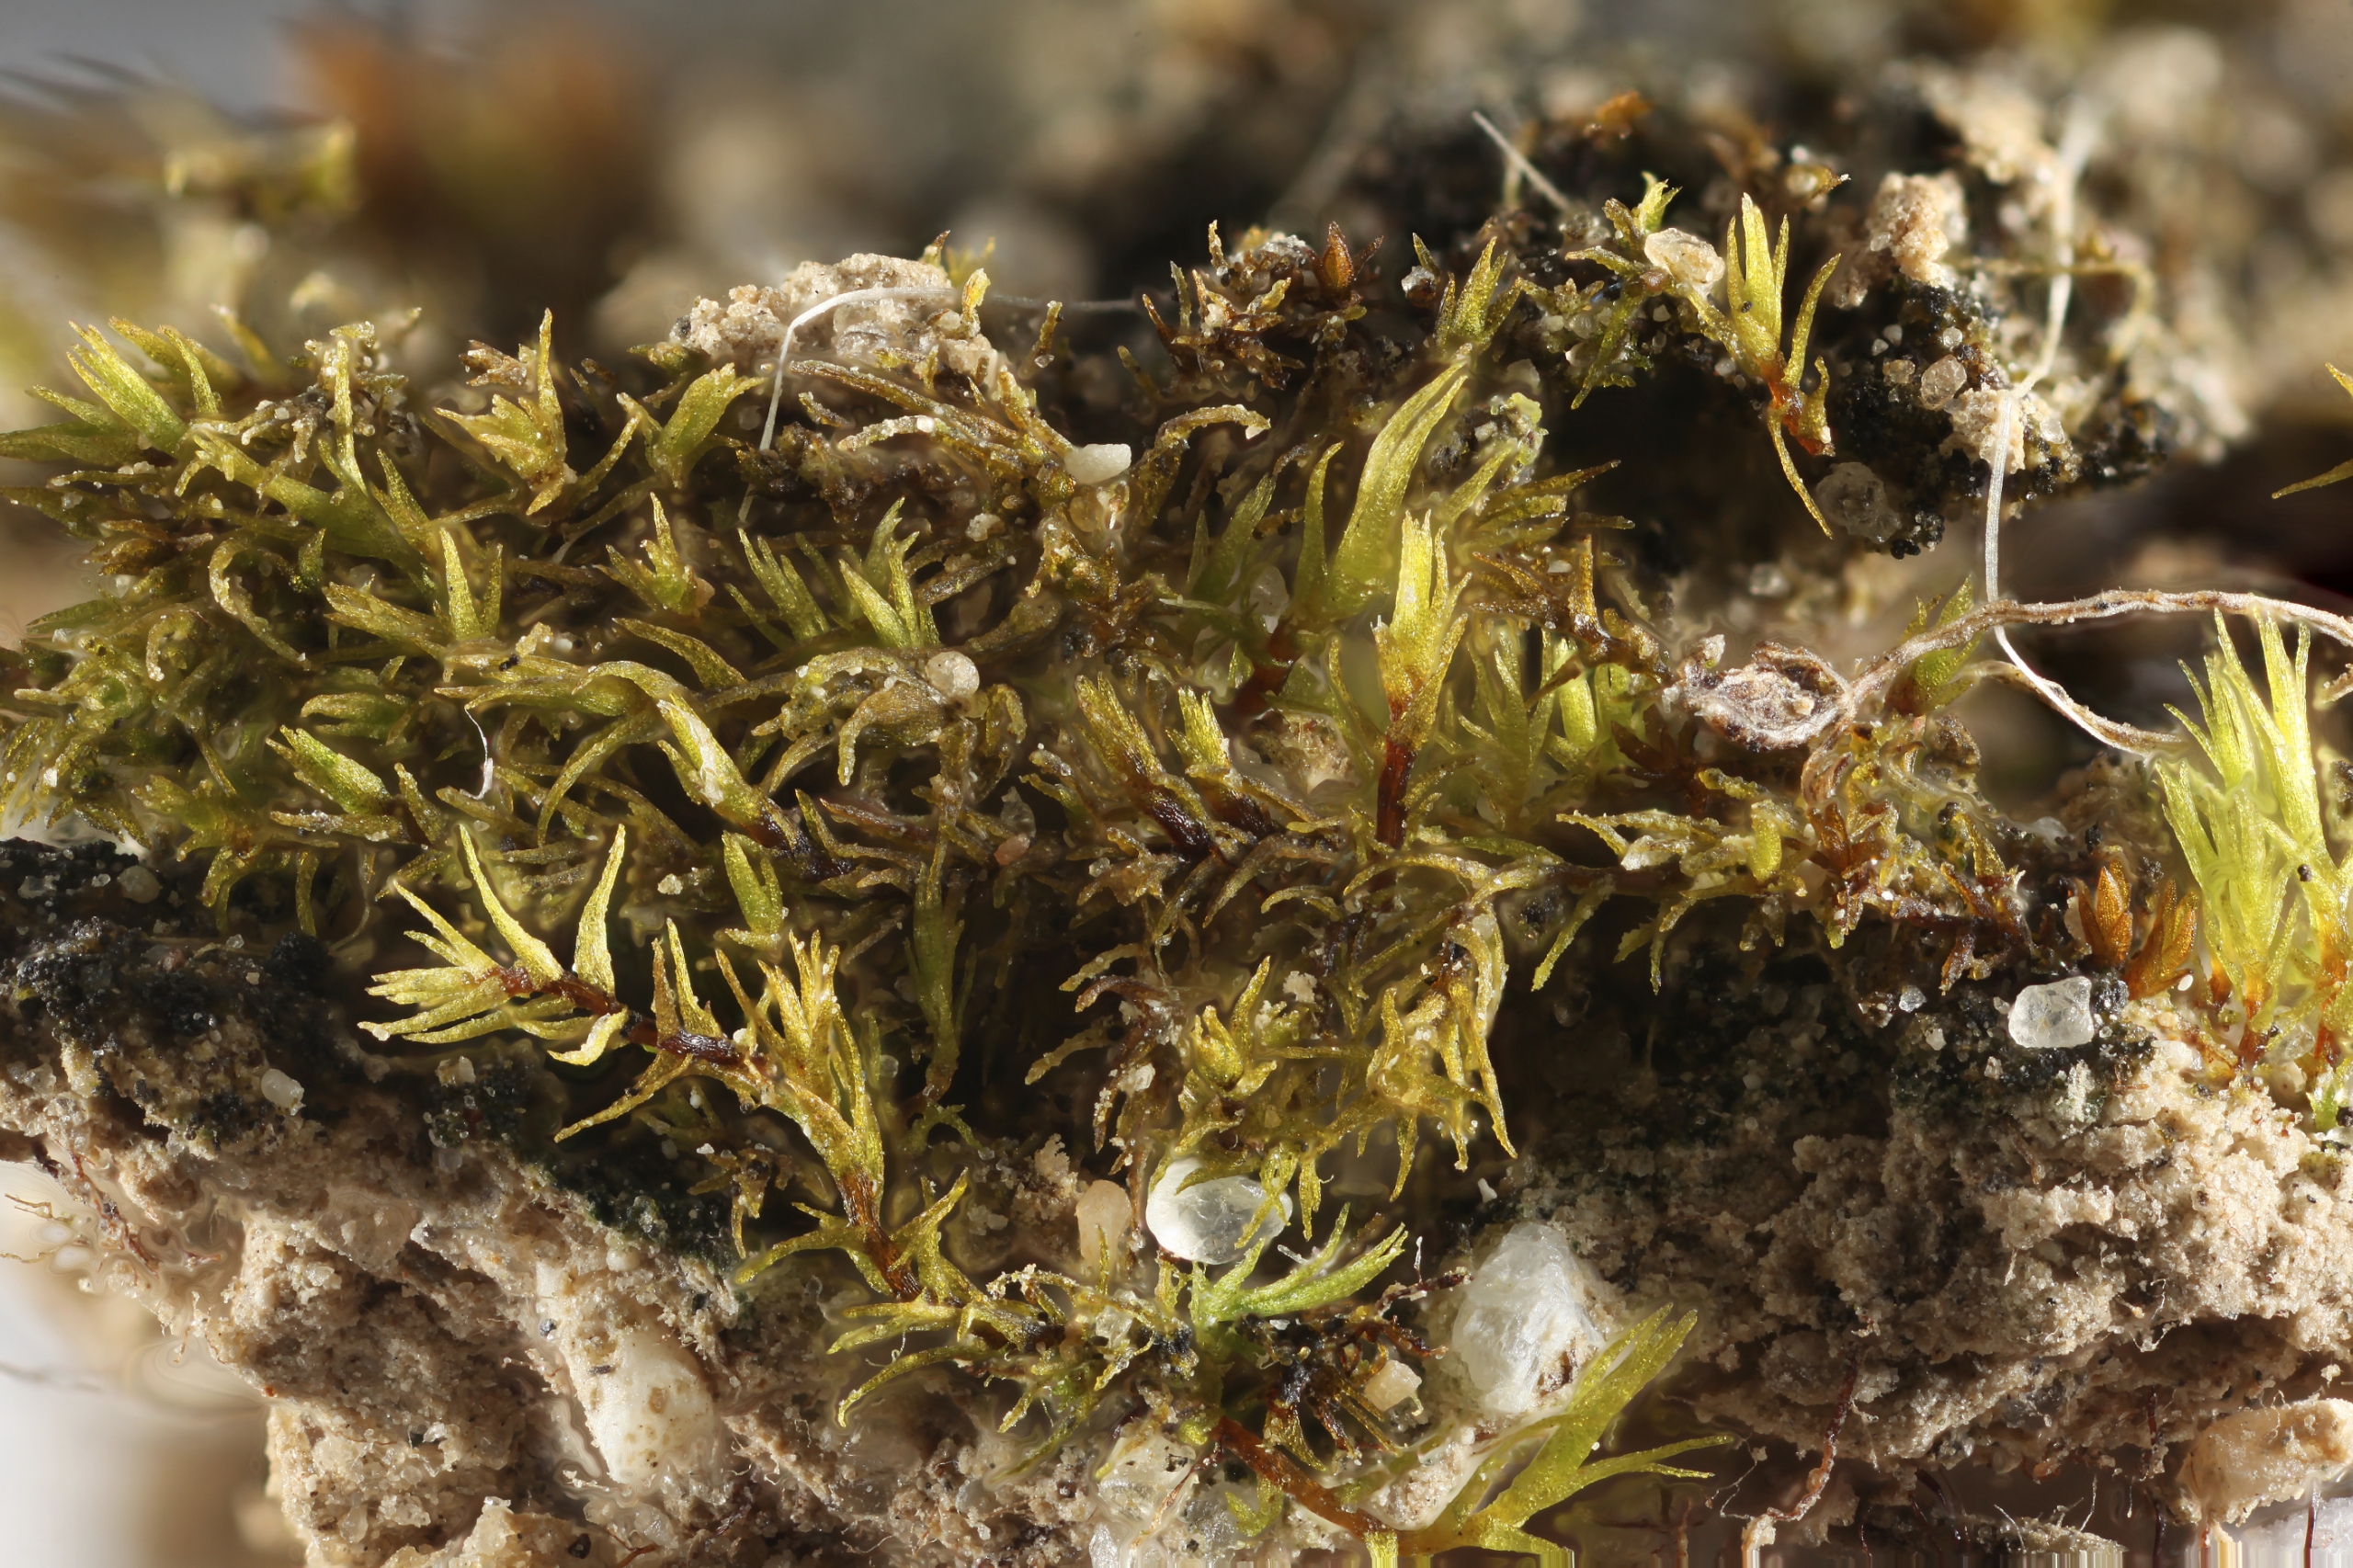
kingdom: Plantae
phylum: Bryophyta
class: Bryopsida
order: Dicranales
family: Dicranellaceae
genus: Dicranella
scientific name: Dicranella howei
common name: Tykbladet skævkapsel
